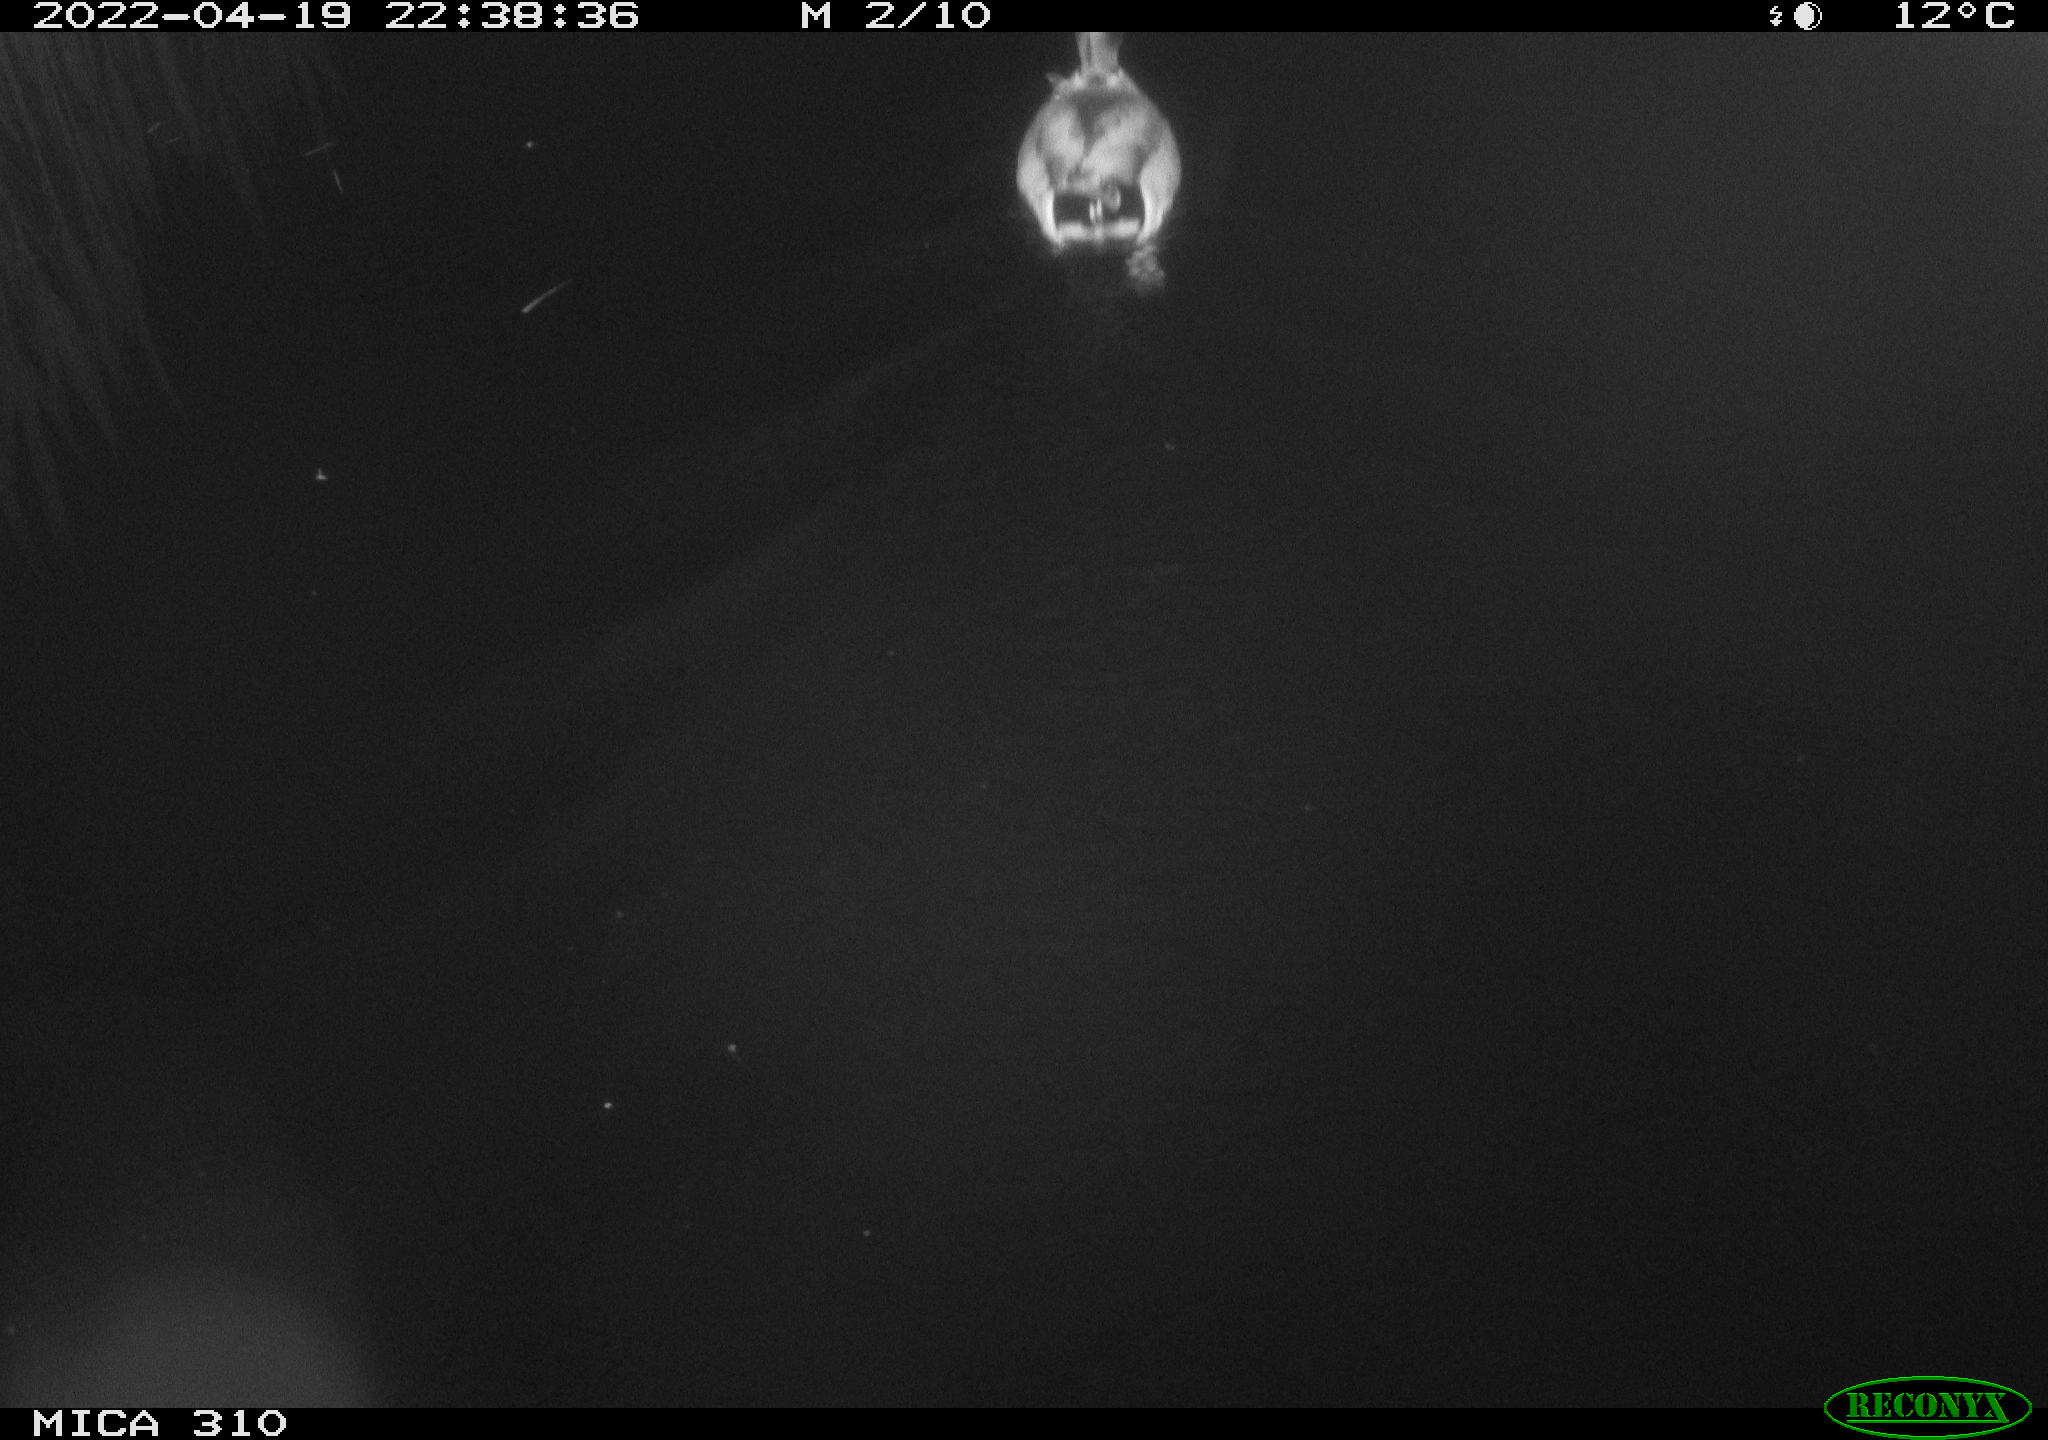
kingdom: Animalia
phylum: Chordata
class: Aves
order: Anseriformes
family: Anatidae
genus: Anas
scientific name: Anas platyrhynchos
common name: Mallard
